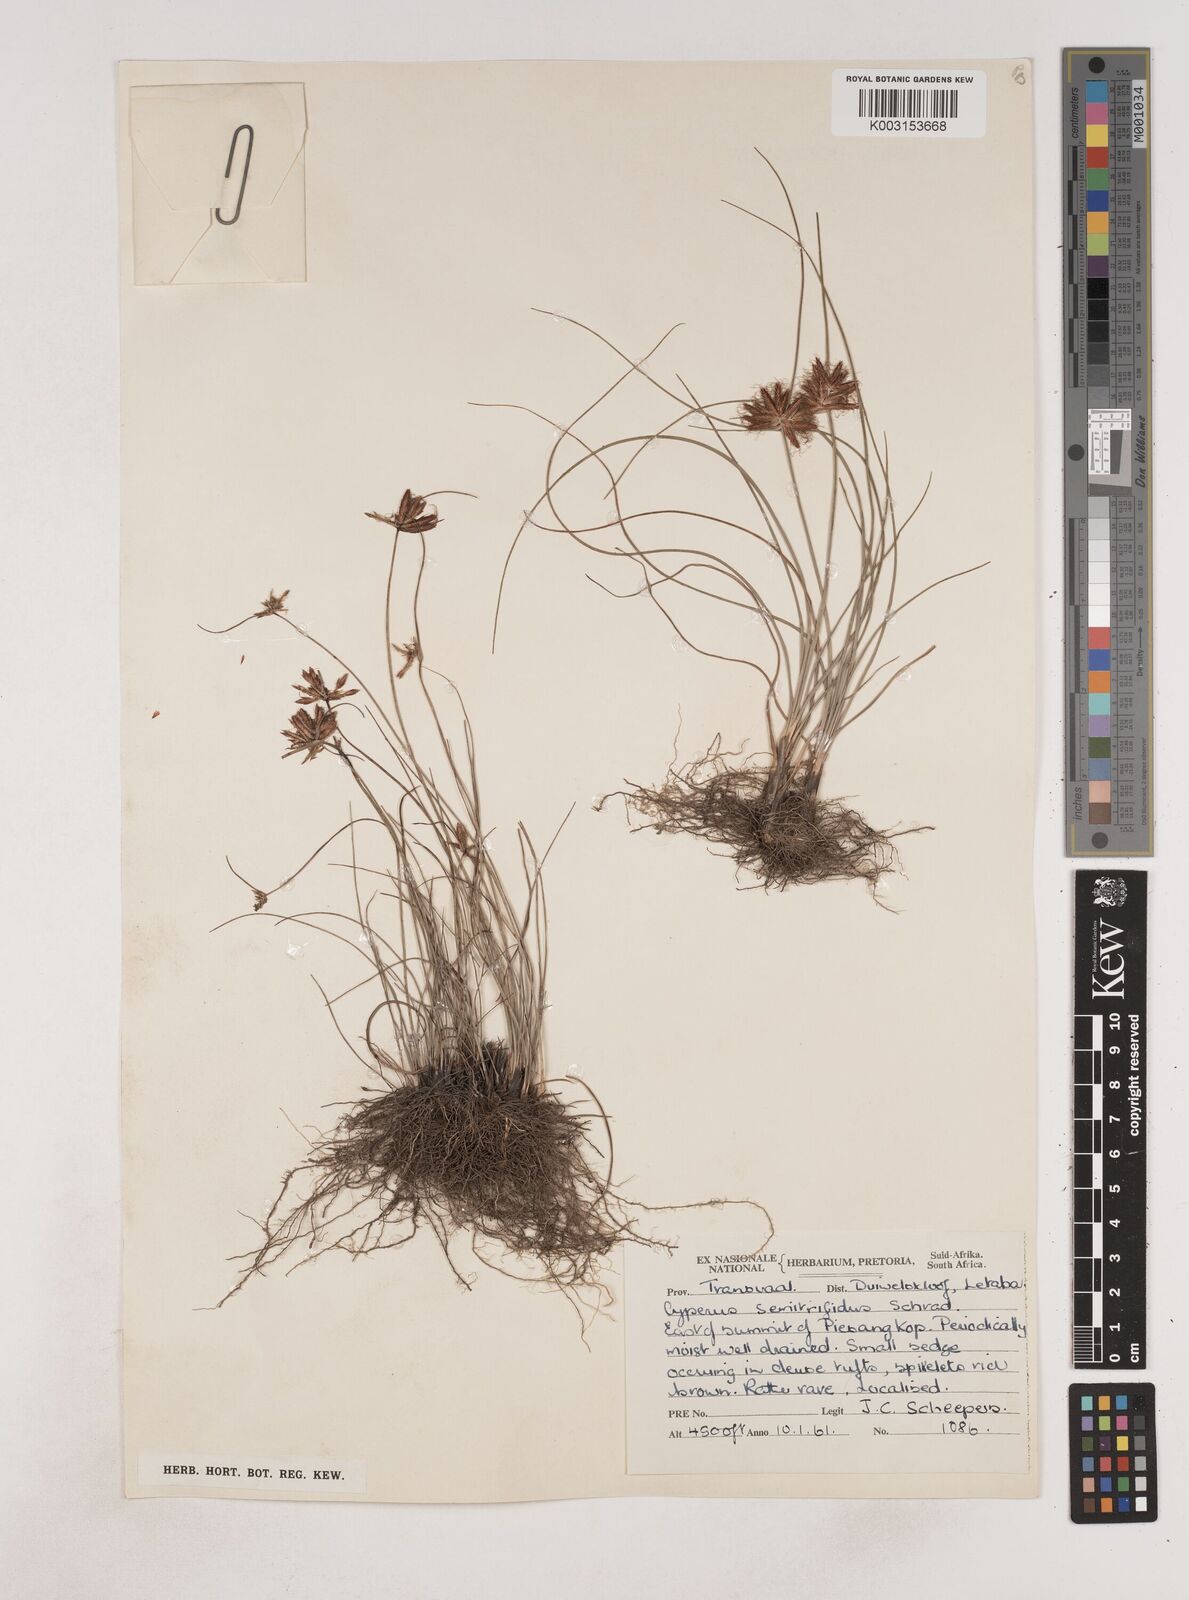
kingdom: Plantae
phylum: Tracheophyta
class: Liliopsida
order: Poales
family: Cyperaceae
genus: Cyperus
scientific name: Cyperus semitrifidus
